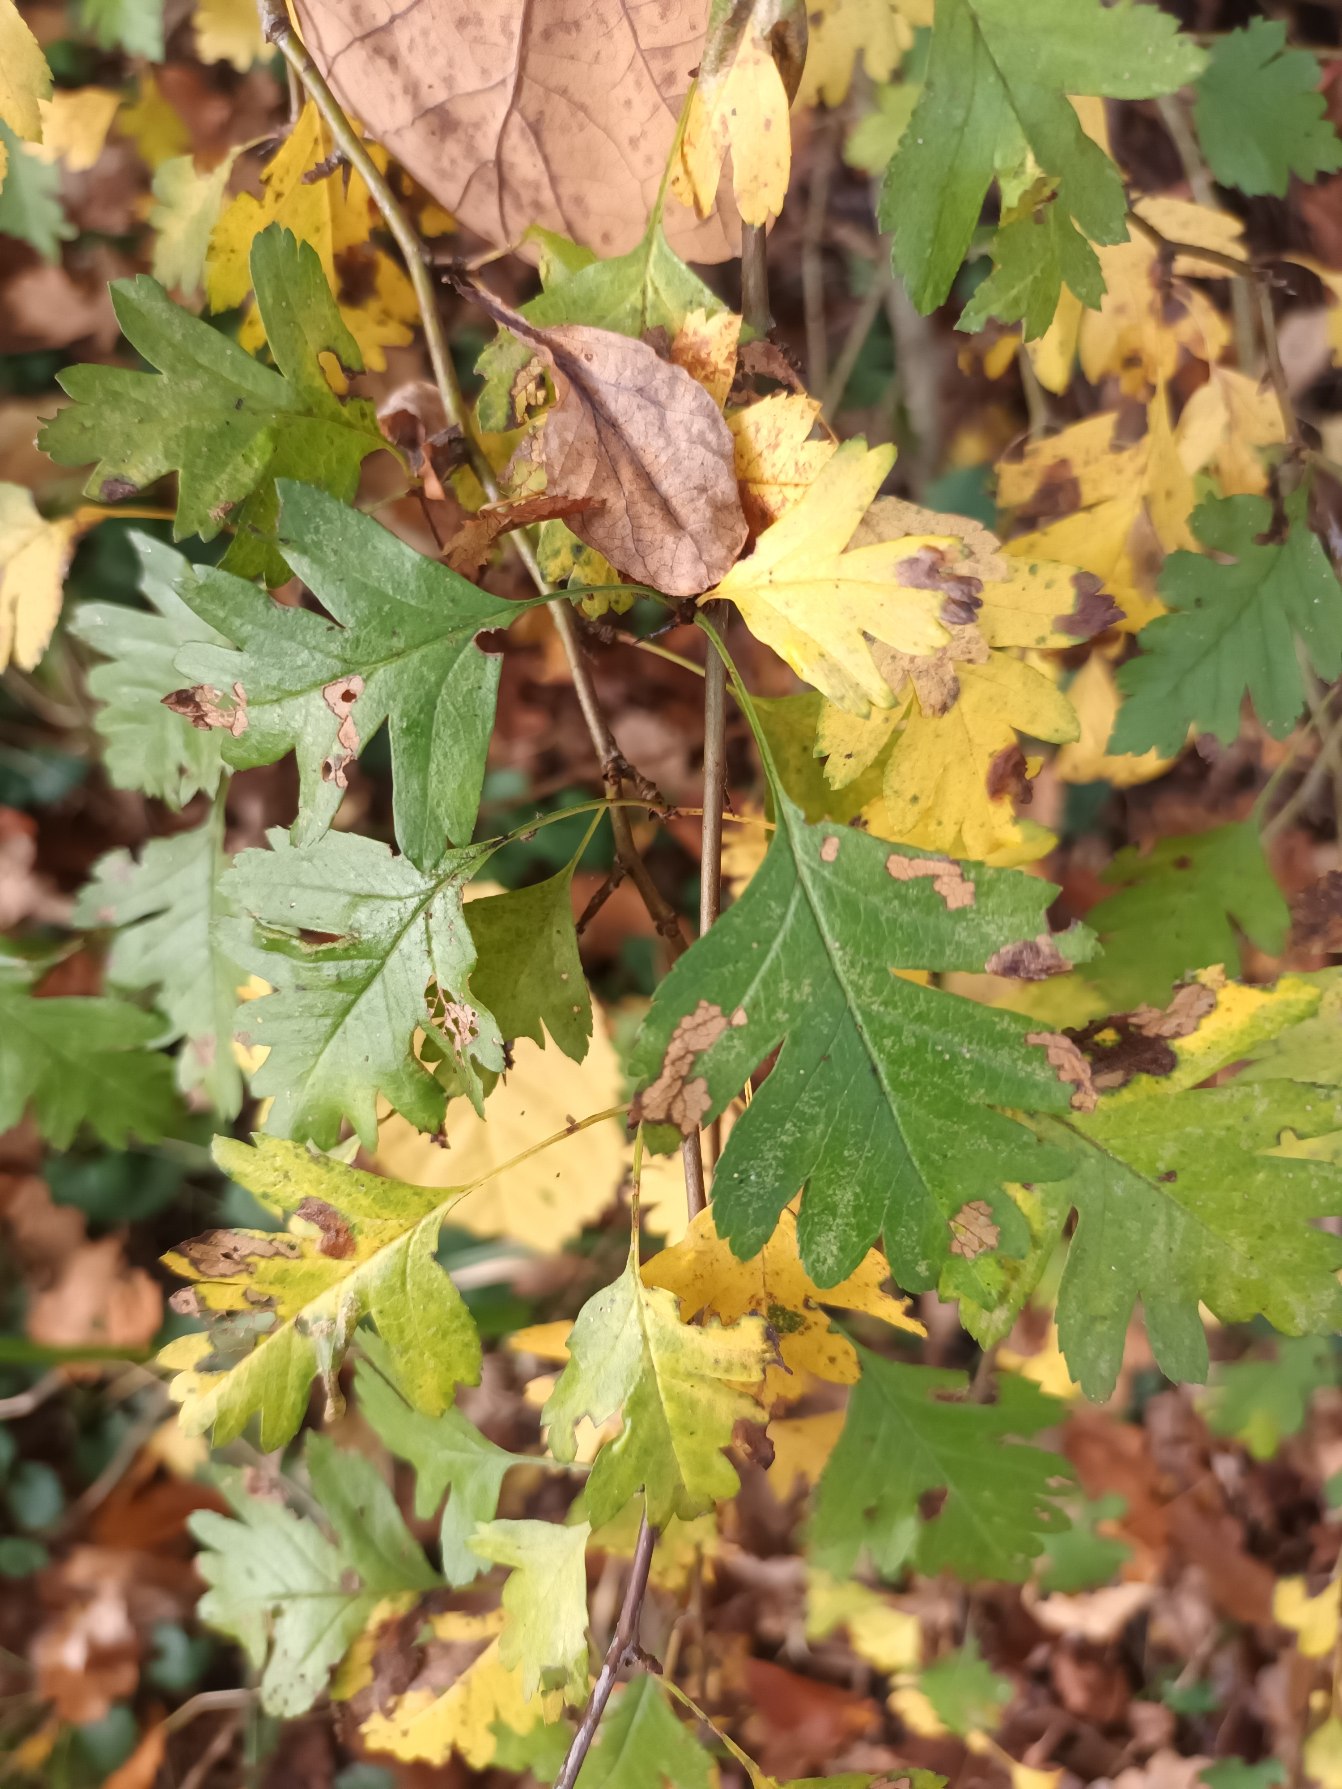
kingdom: Plantae
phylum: Tracheophyta
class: Magnoliopsida
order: Rosales
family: Rosaceae
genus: Crataegus
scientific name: Crataegus monogyna
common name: Engriflet hvidtjørn
